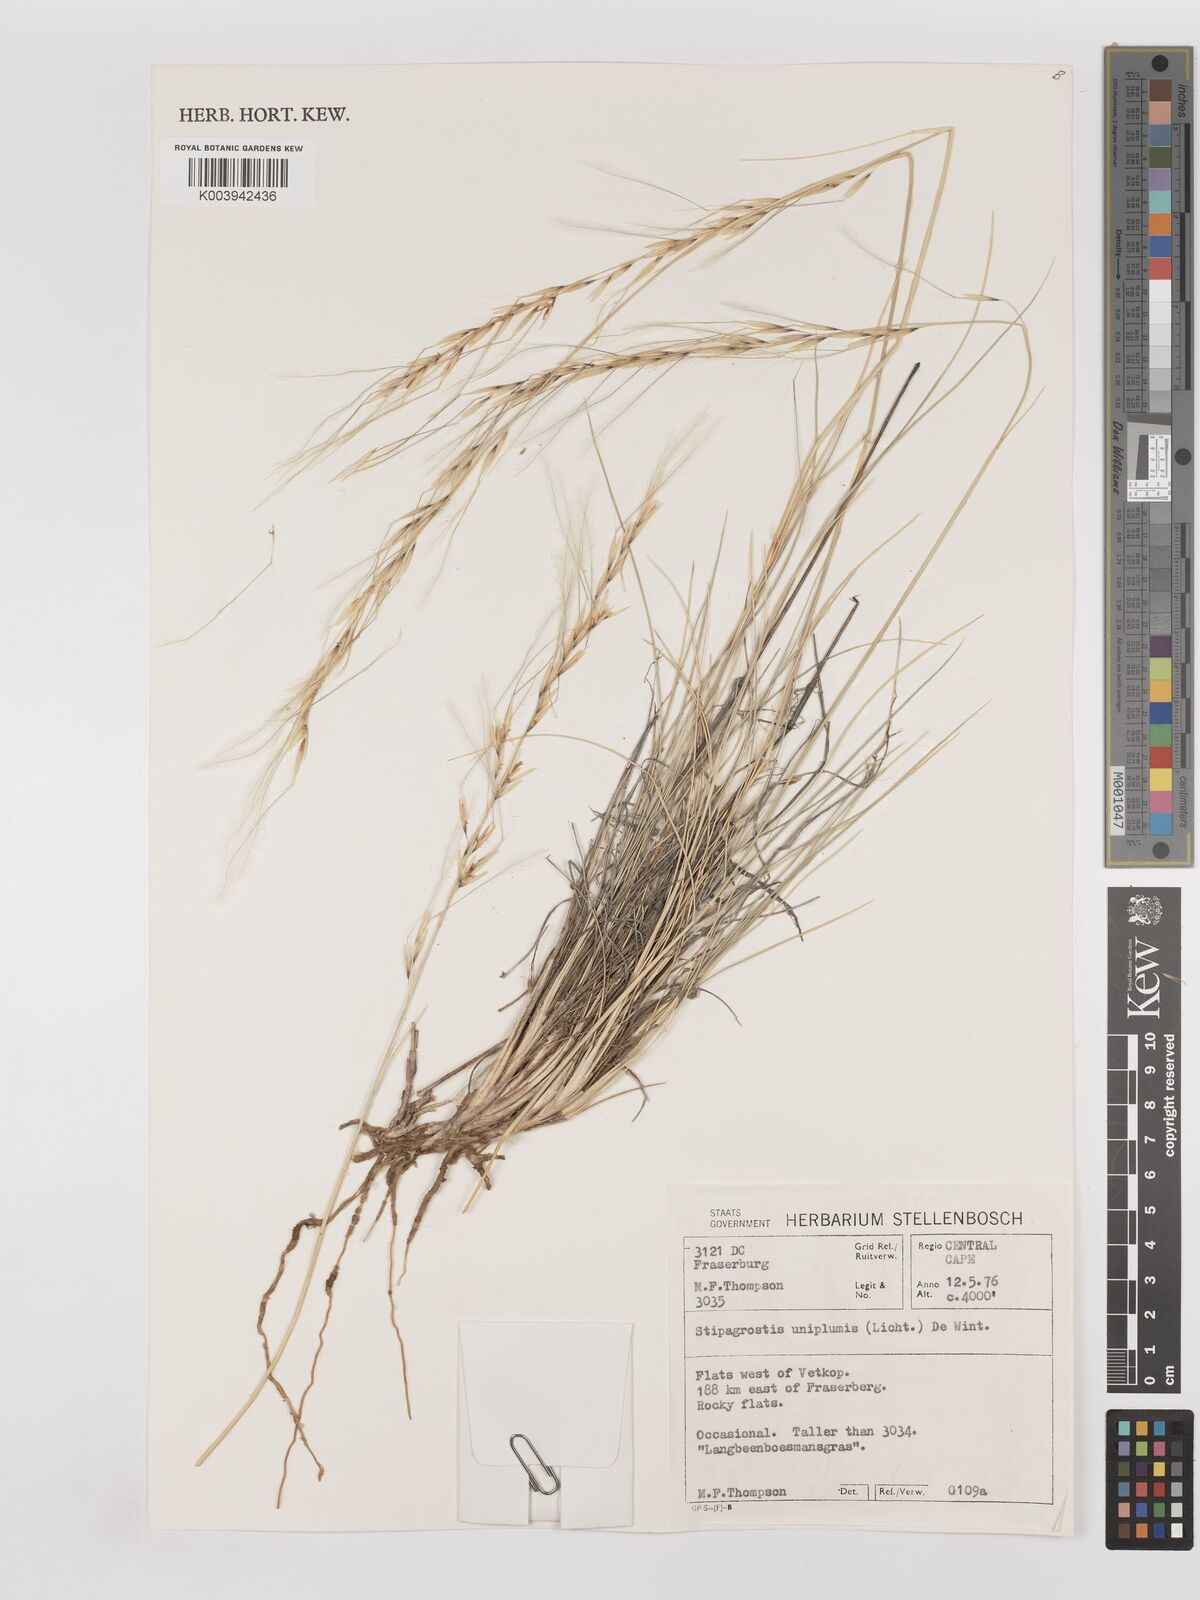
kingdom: Plantae
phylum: Tracheophyta
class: Liliopsida
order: Poales
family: Poaceae
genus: Stipagrostis
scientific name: Stipagrostis uniplumis
